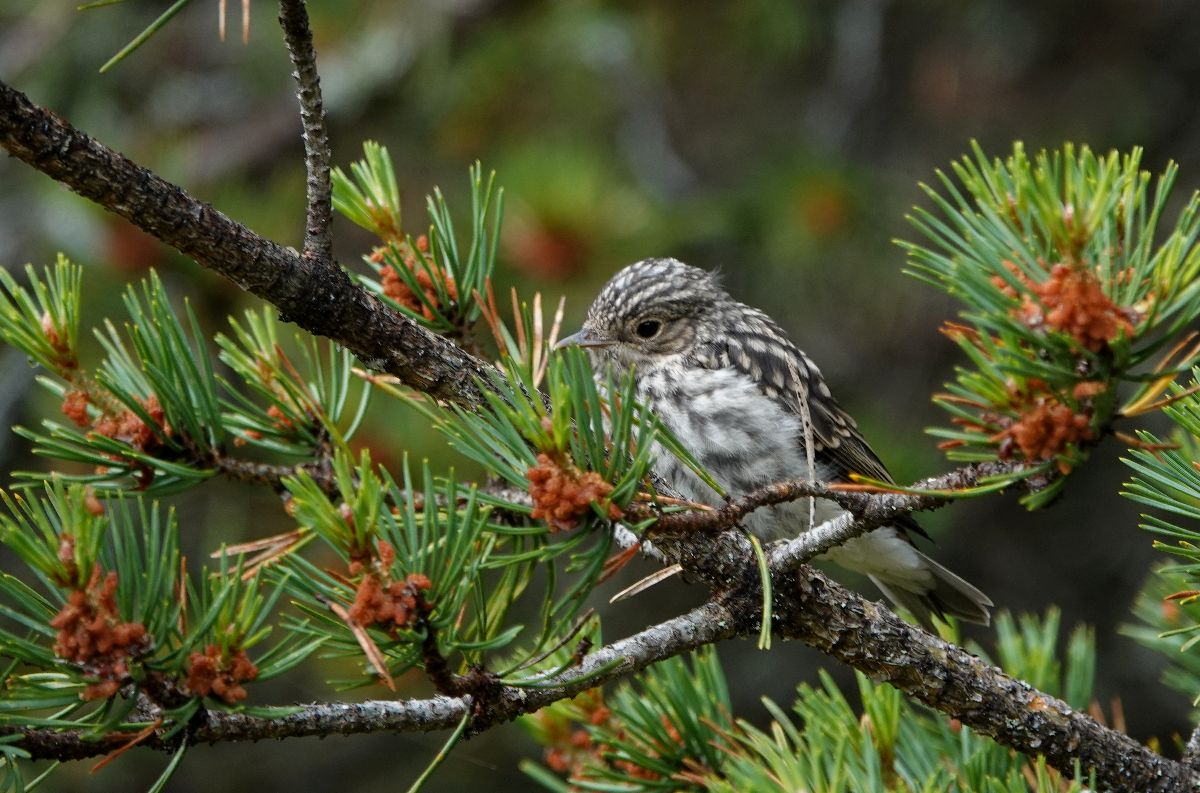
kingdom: Animalia
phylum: Chordata
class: Aves
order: Passeriformes
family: Muscicapidae
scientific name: Muscicapidae
